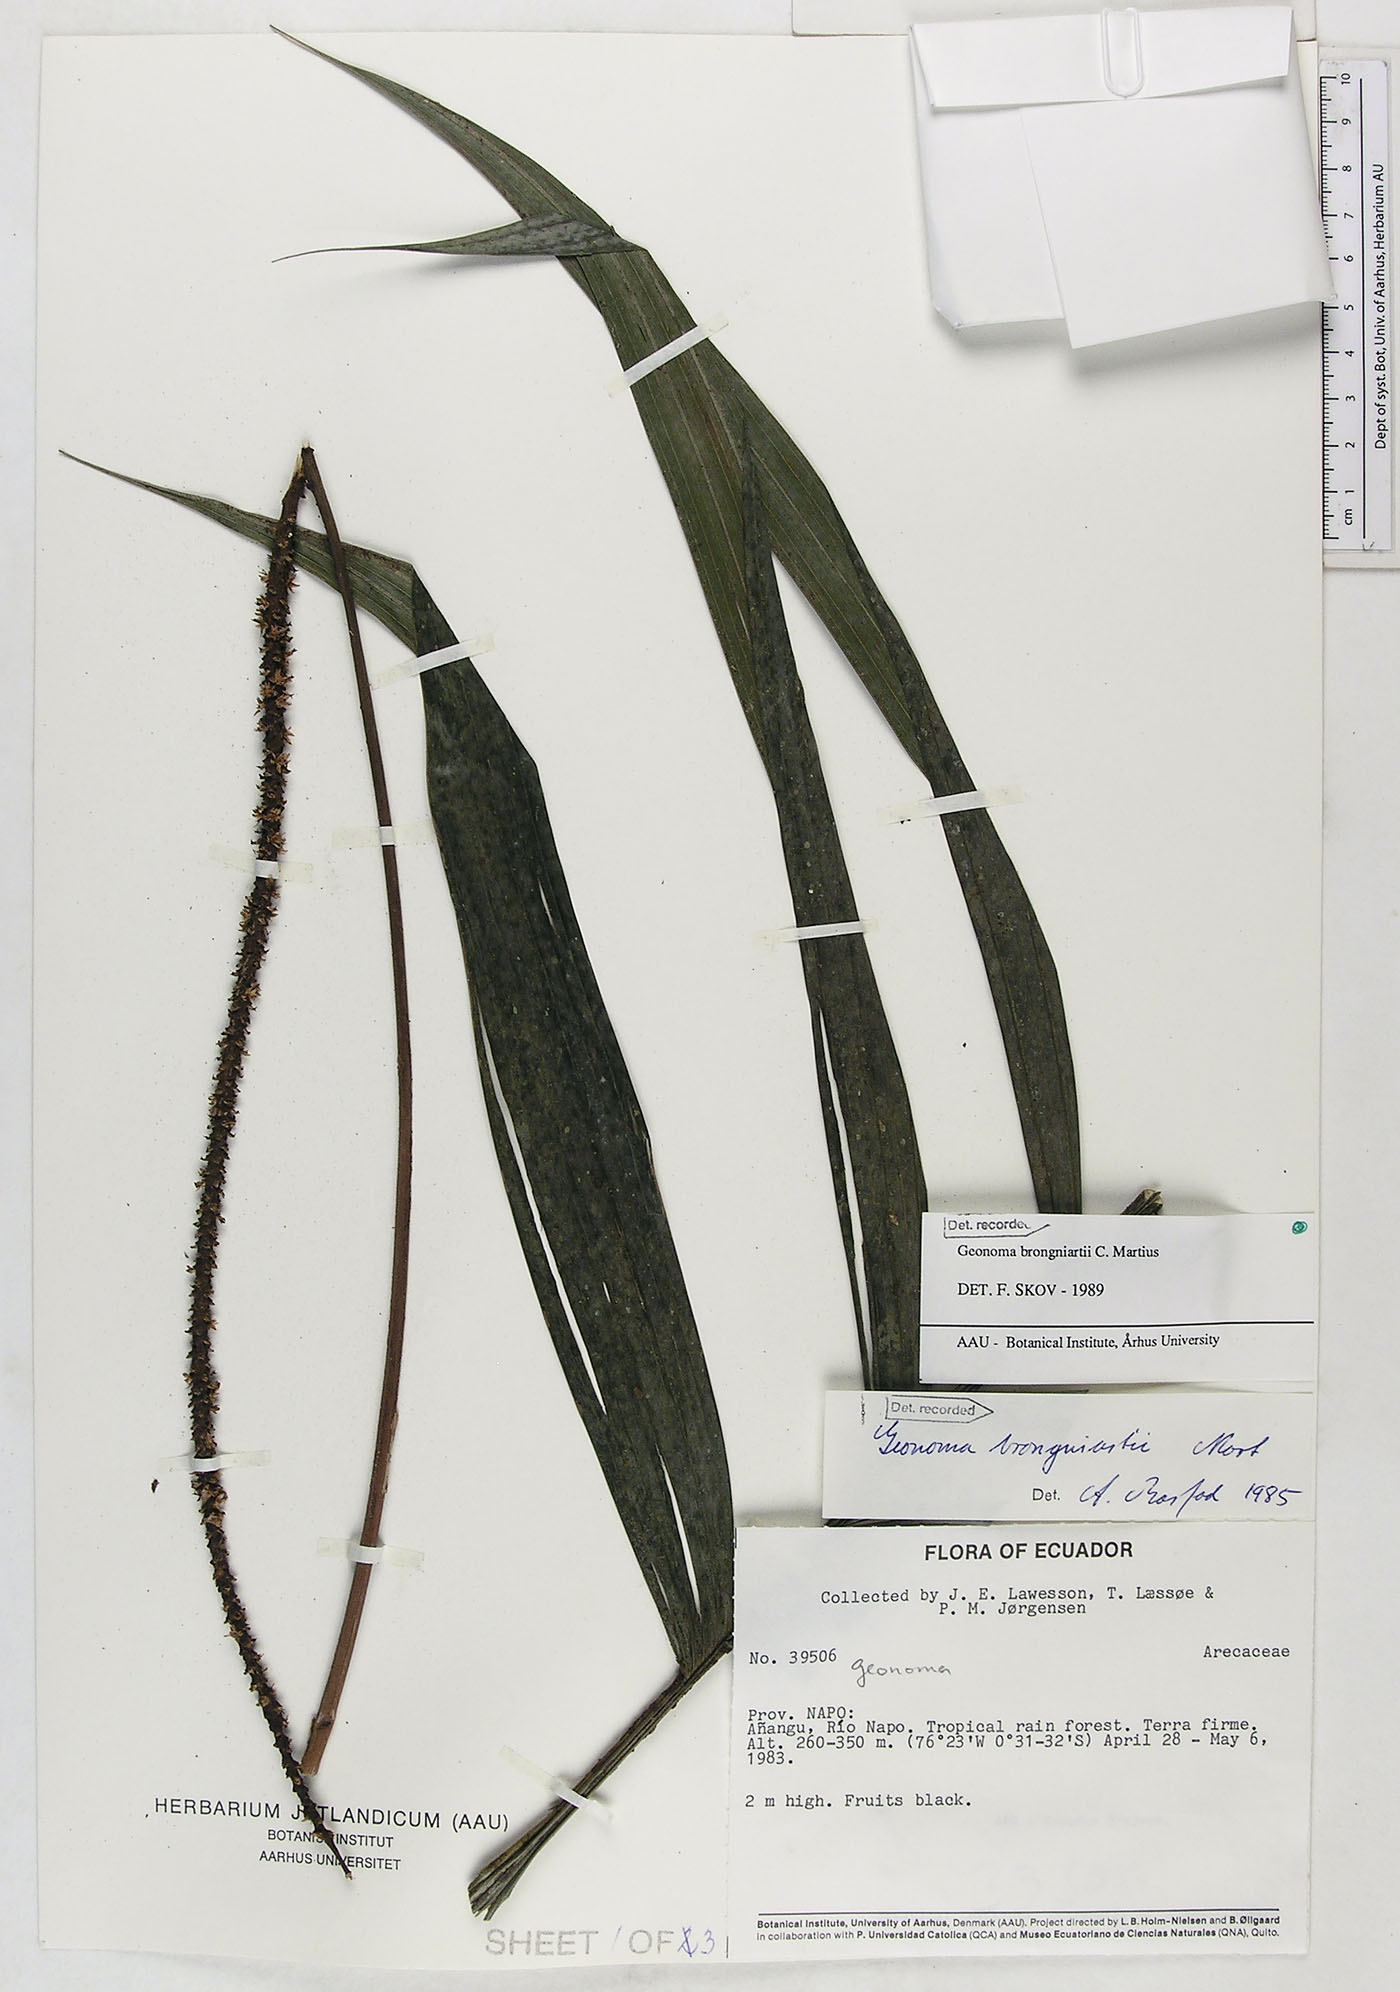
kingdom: Plantae
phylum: Tracheophyta
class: Liliopsida
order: Arecales
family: Arecaceae
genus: Geonoma
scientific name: Geonoma brongniartii
